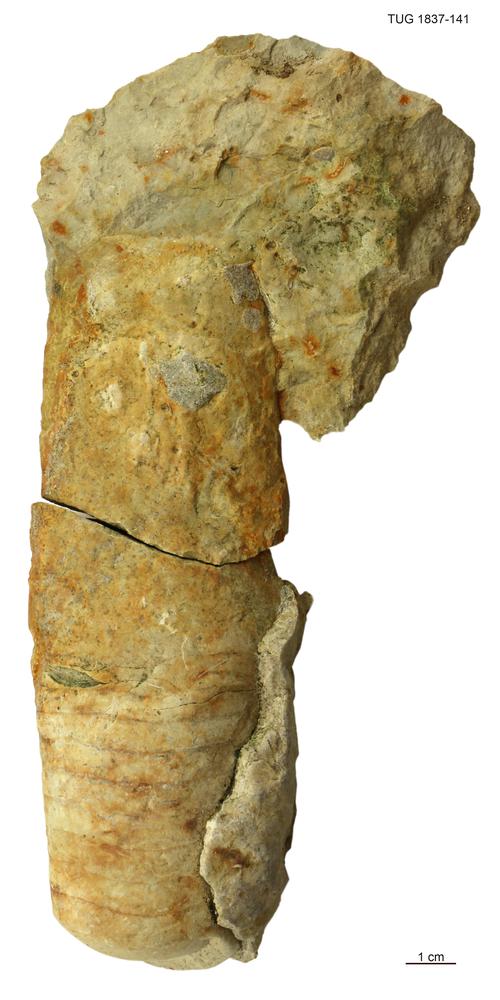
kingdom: Animalia
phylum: Mollusca
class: Cephalopoda
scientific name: Cephalopoda
